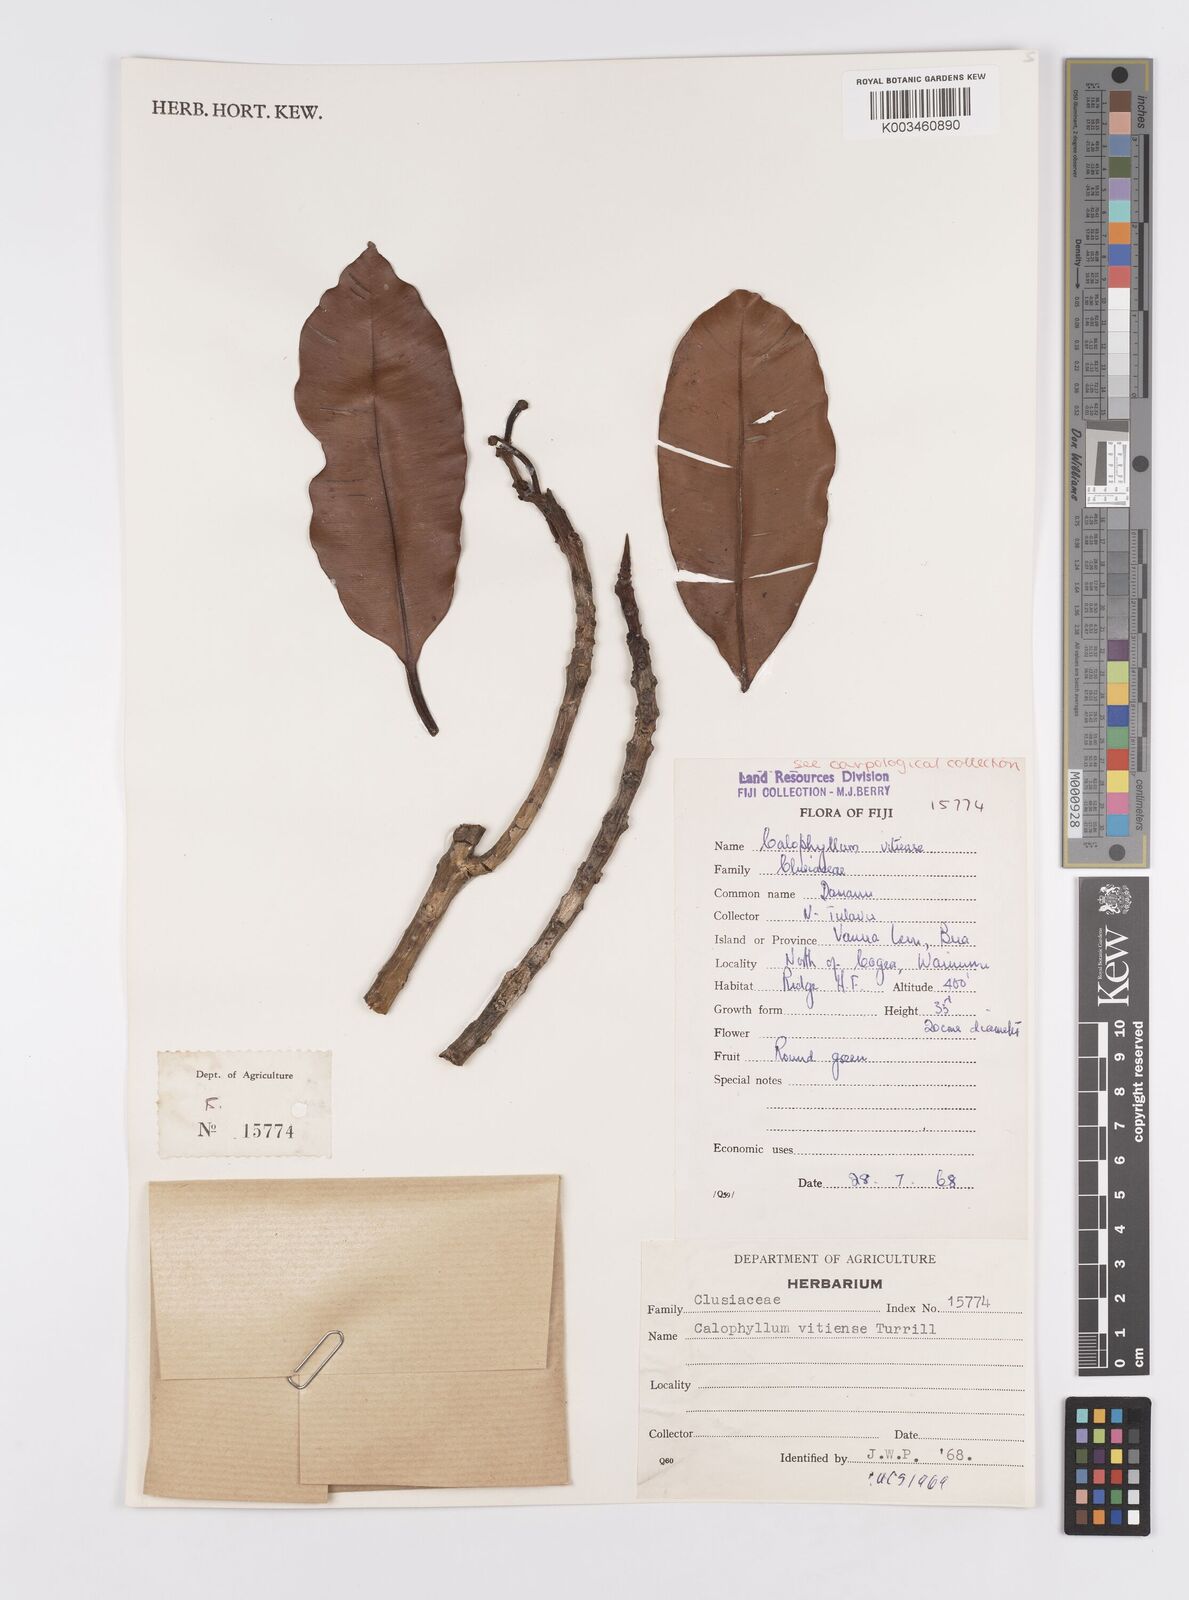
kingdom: Plantae
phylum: Tracheophyta
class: Magnoliopsida
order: Malpighiales
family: Calophyllaceae
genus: Calophyllum
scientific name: Calophyllum vitiense
